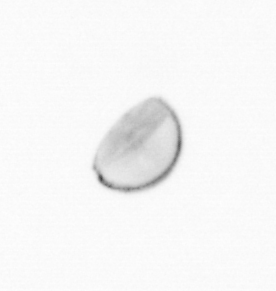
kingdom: Chromista
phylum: Ochrophyta
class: Bacillariophyceae
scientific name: Bacillariophyceae
